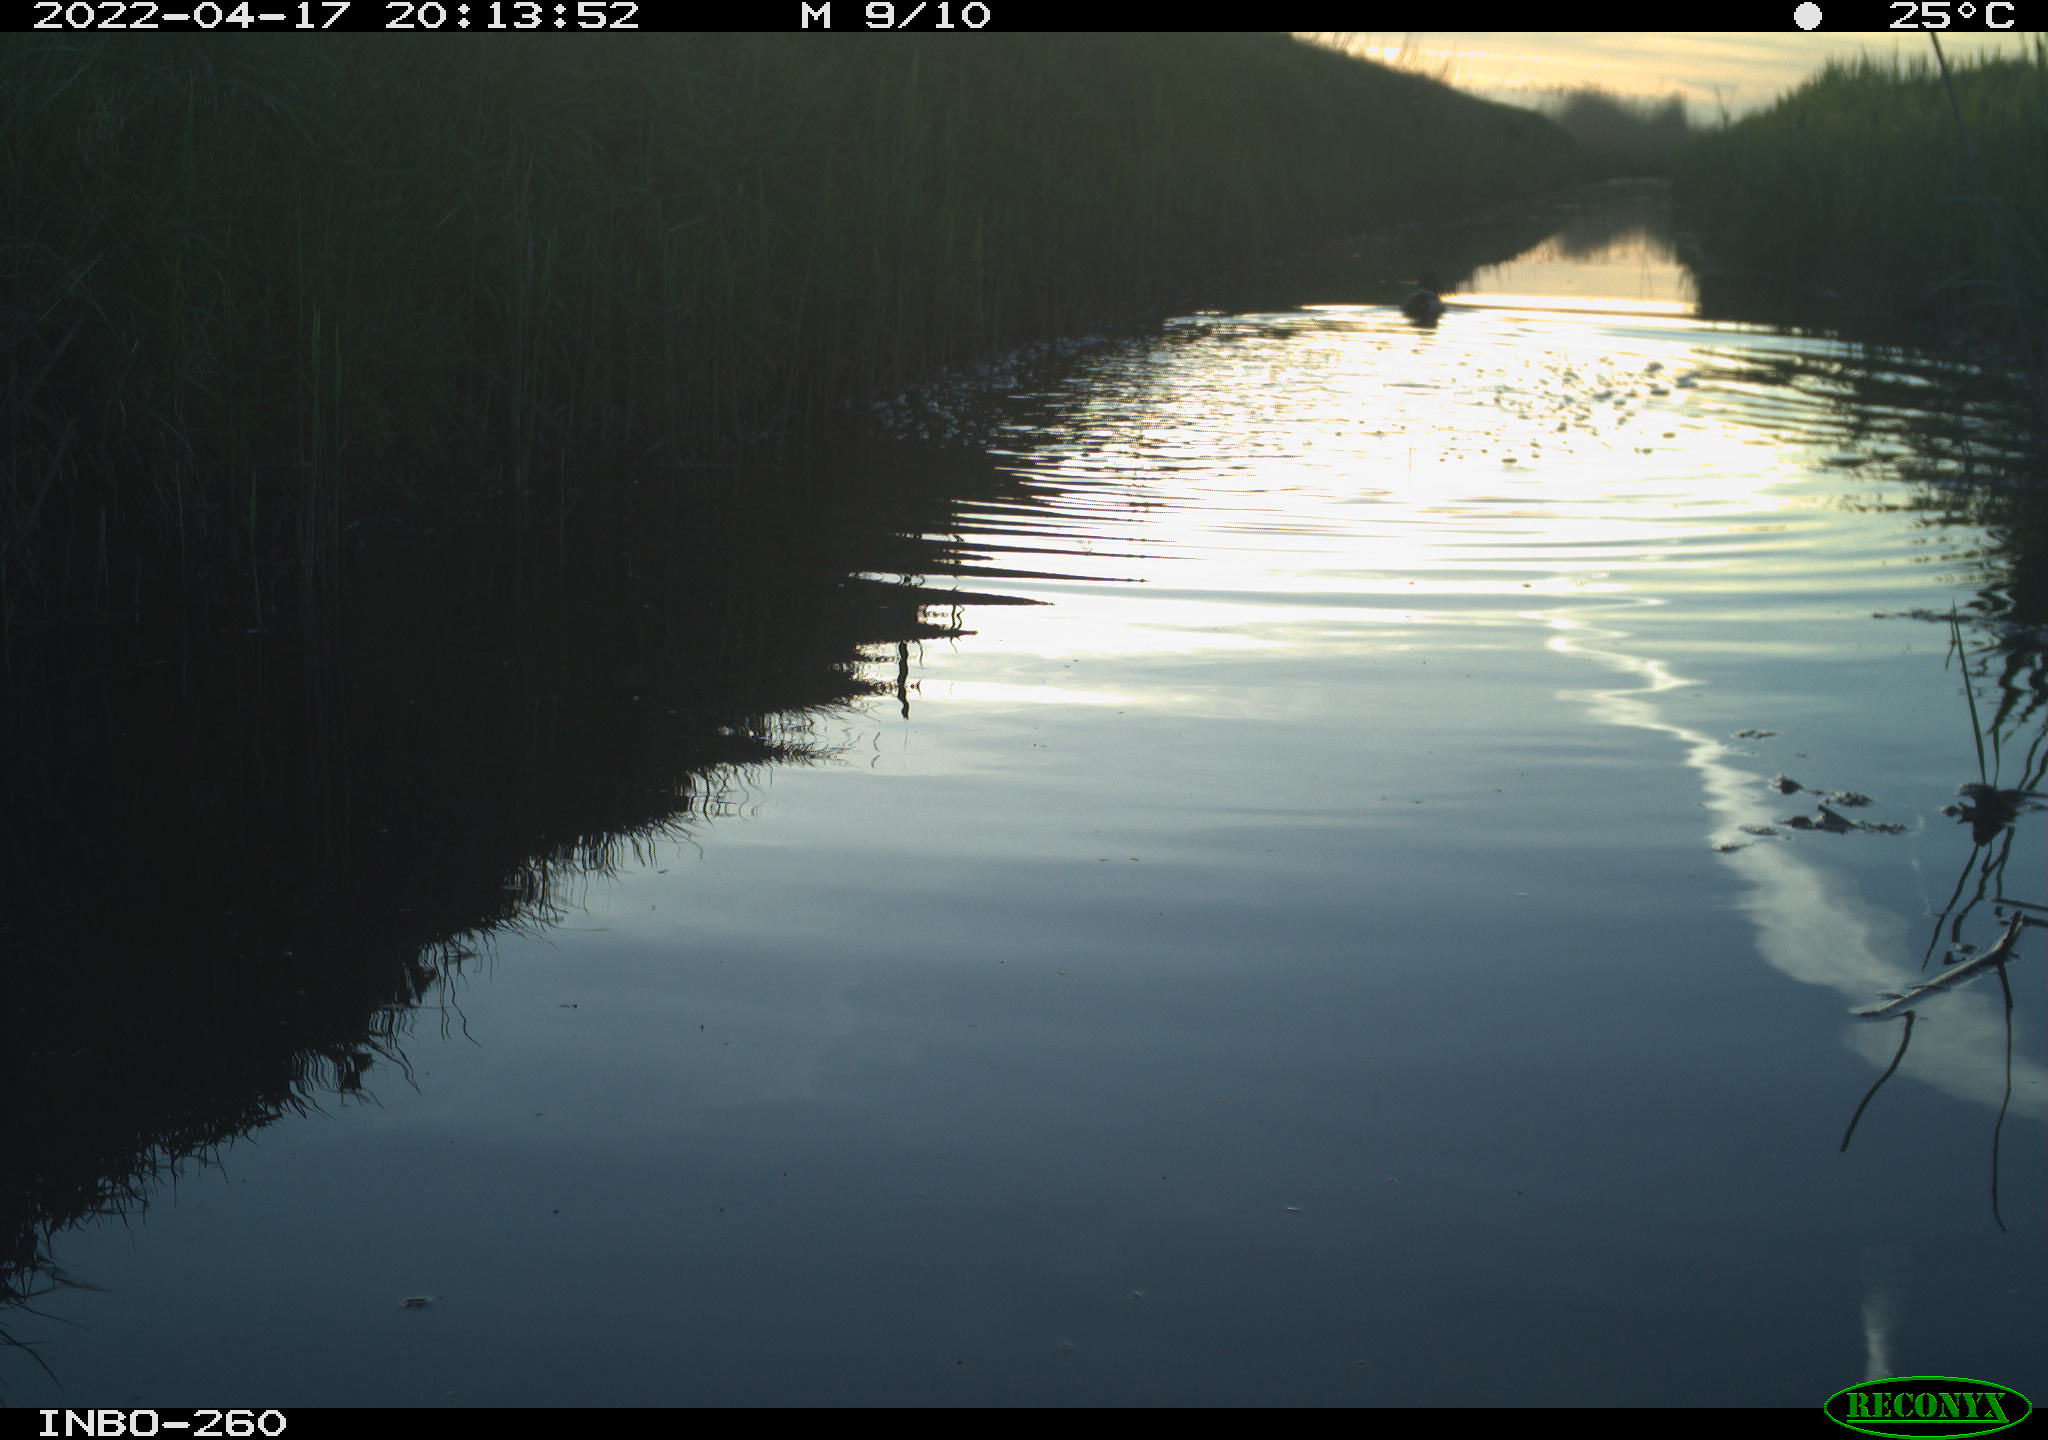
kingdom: Animalia
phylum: Chordata
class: Aves
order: Gruiformes
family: Rallidae
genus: Fulica
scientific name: Fulica atra
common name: Eurasian coot
